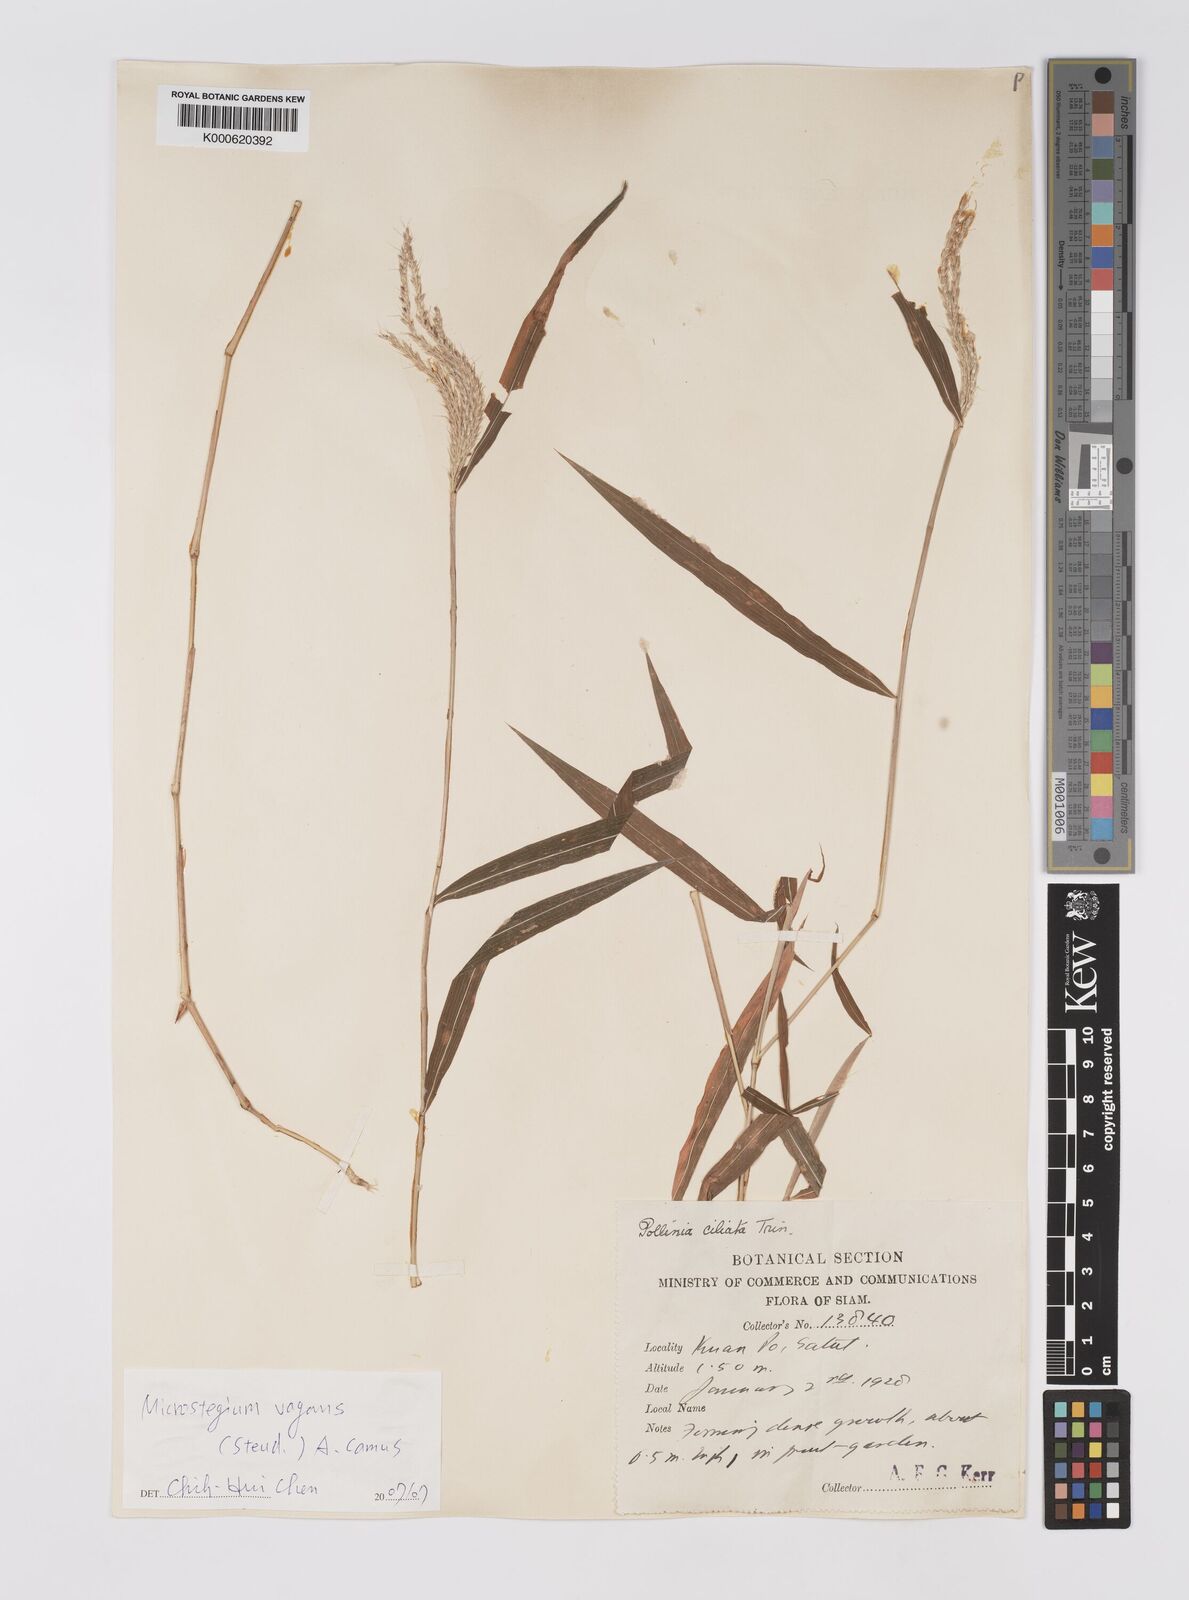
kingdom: Plantae
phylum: Tracheophyta
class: Liliopsida
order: Poales
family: Poaceae
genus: Microstegium
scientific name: Microstegium fasciculatum
